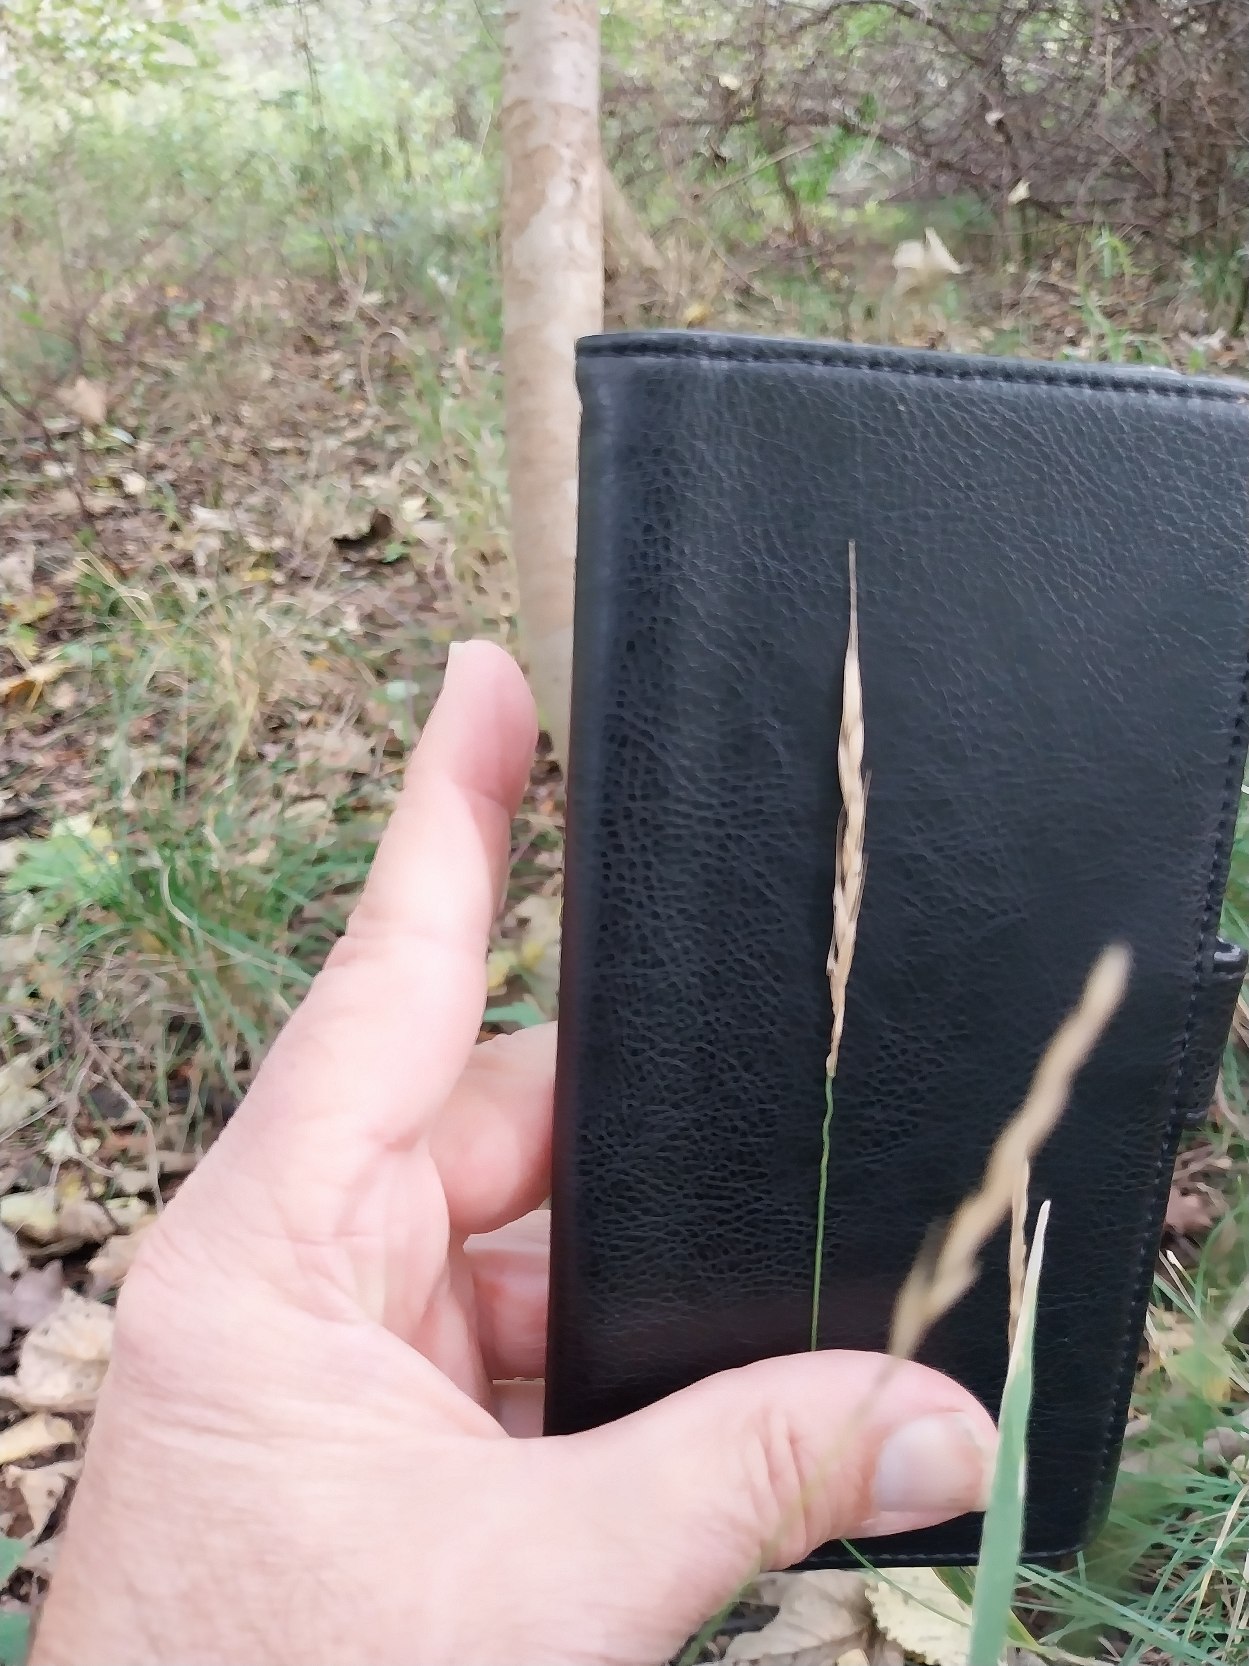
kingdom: Plantae
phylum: Tracheophyta
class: Liliopsida
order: Poales
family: Poaceae
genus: Elymus
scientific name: Elymus caninus
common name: Hundekvik
